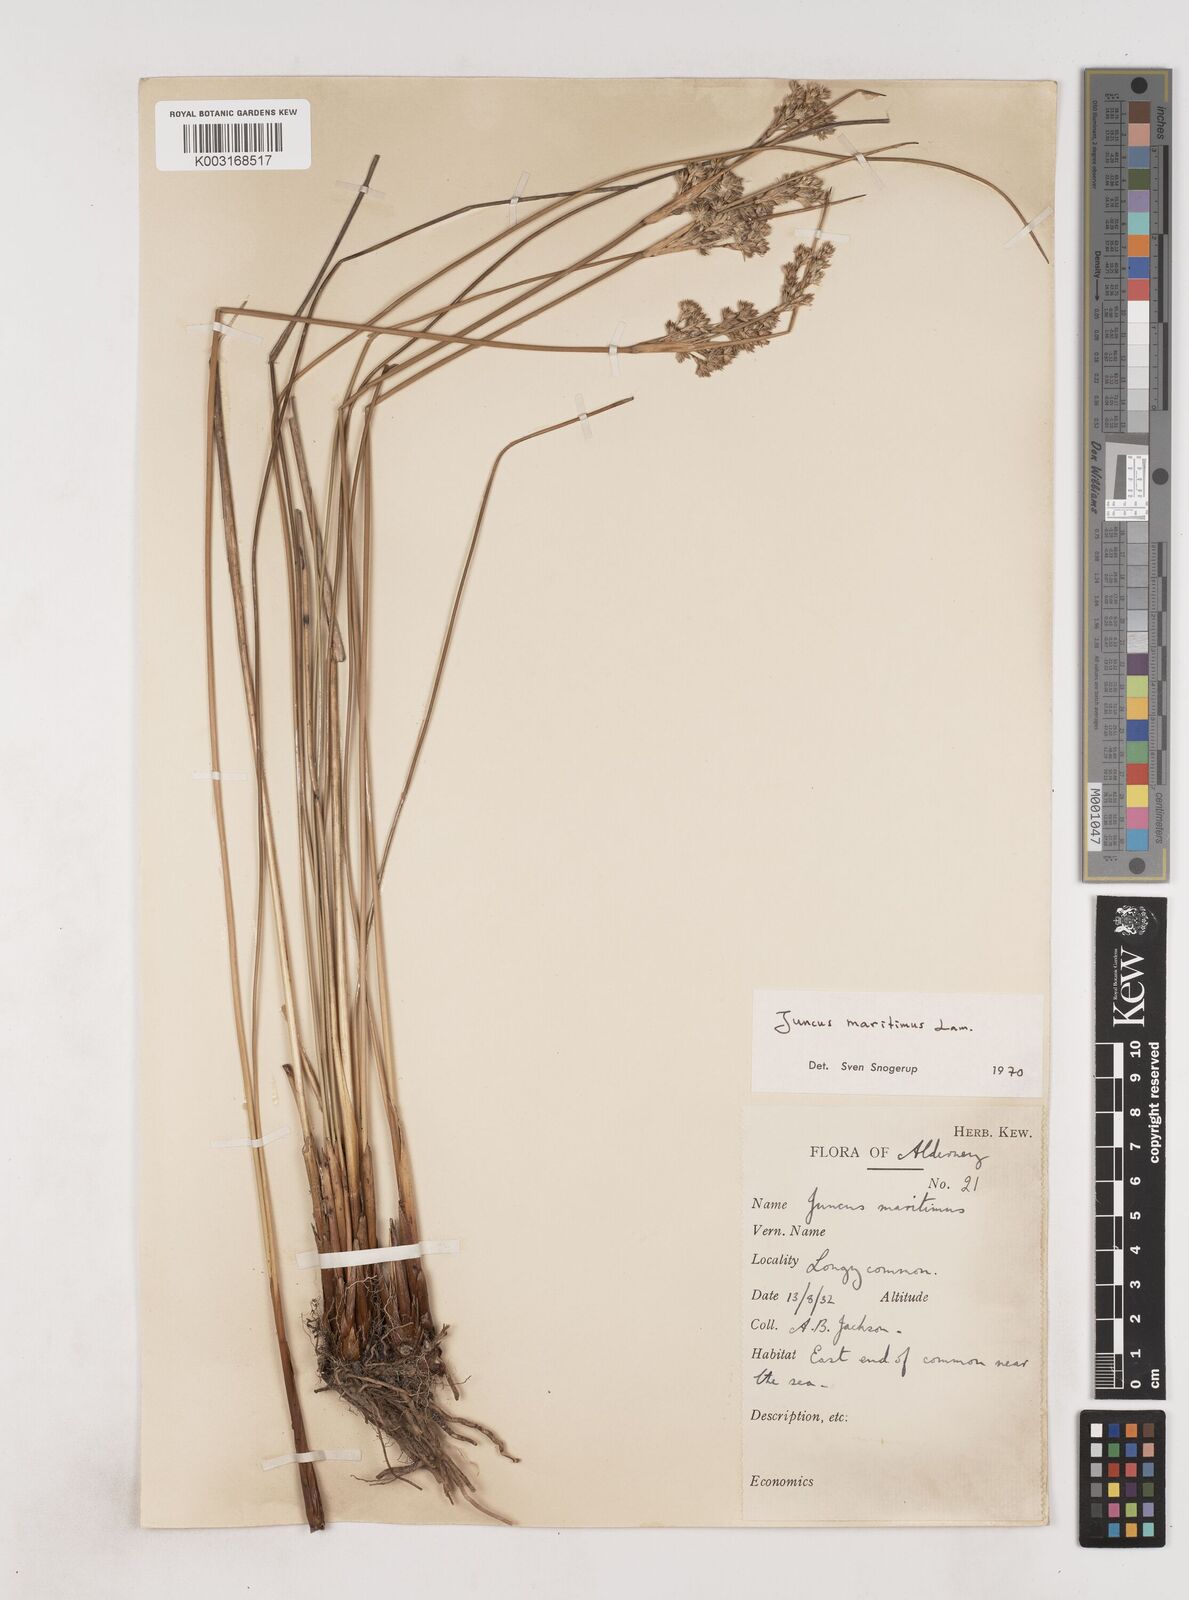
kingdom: Plantae
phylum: Tracheophyta
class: Liliopsida
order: Poales
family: Juncaceae
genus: Juncus
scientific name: Juncus maritimus
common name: Sea rush
